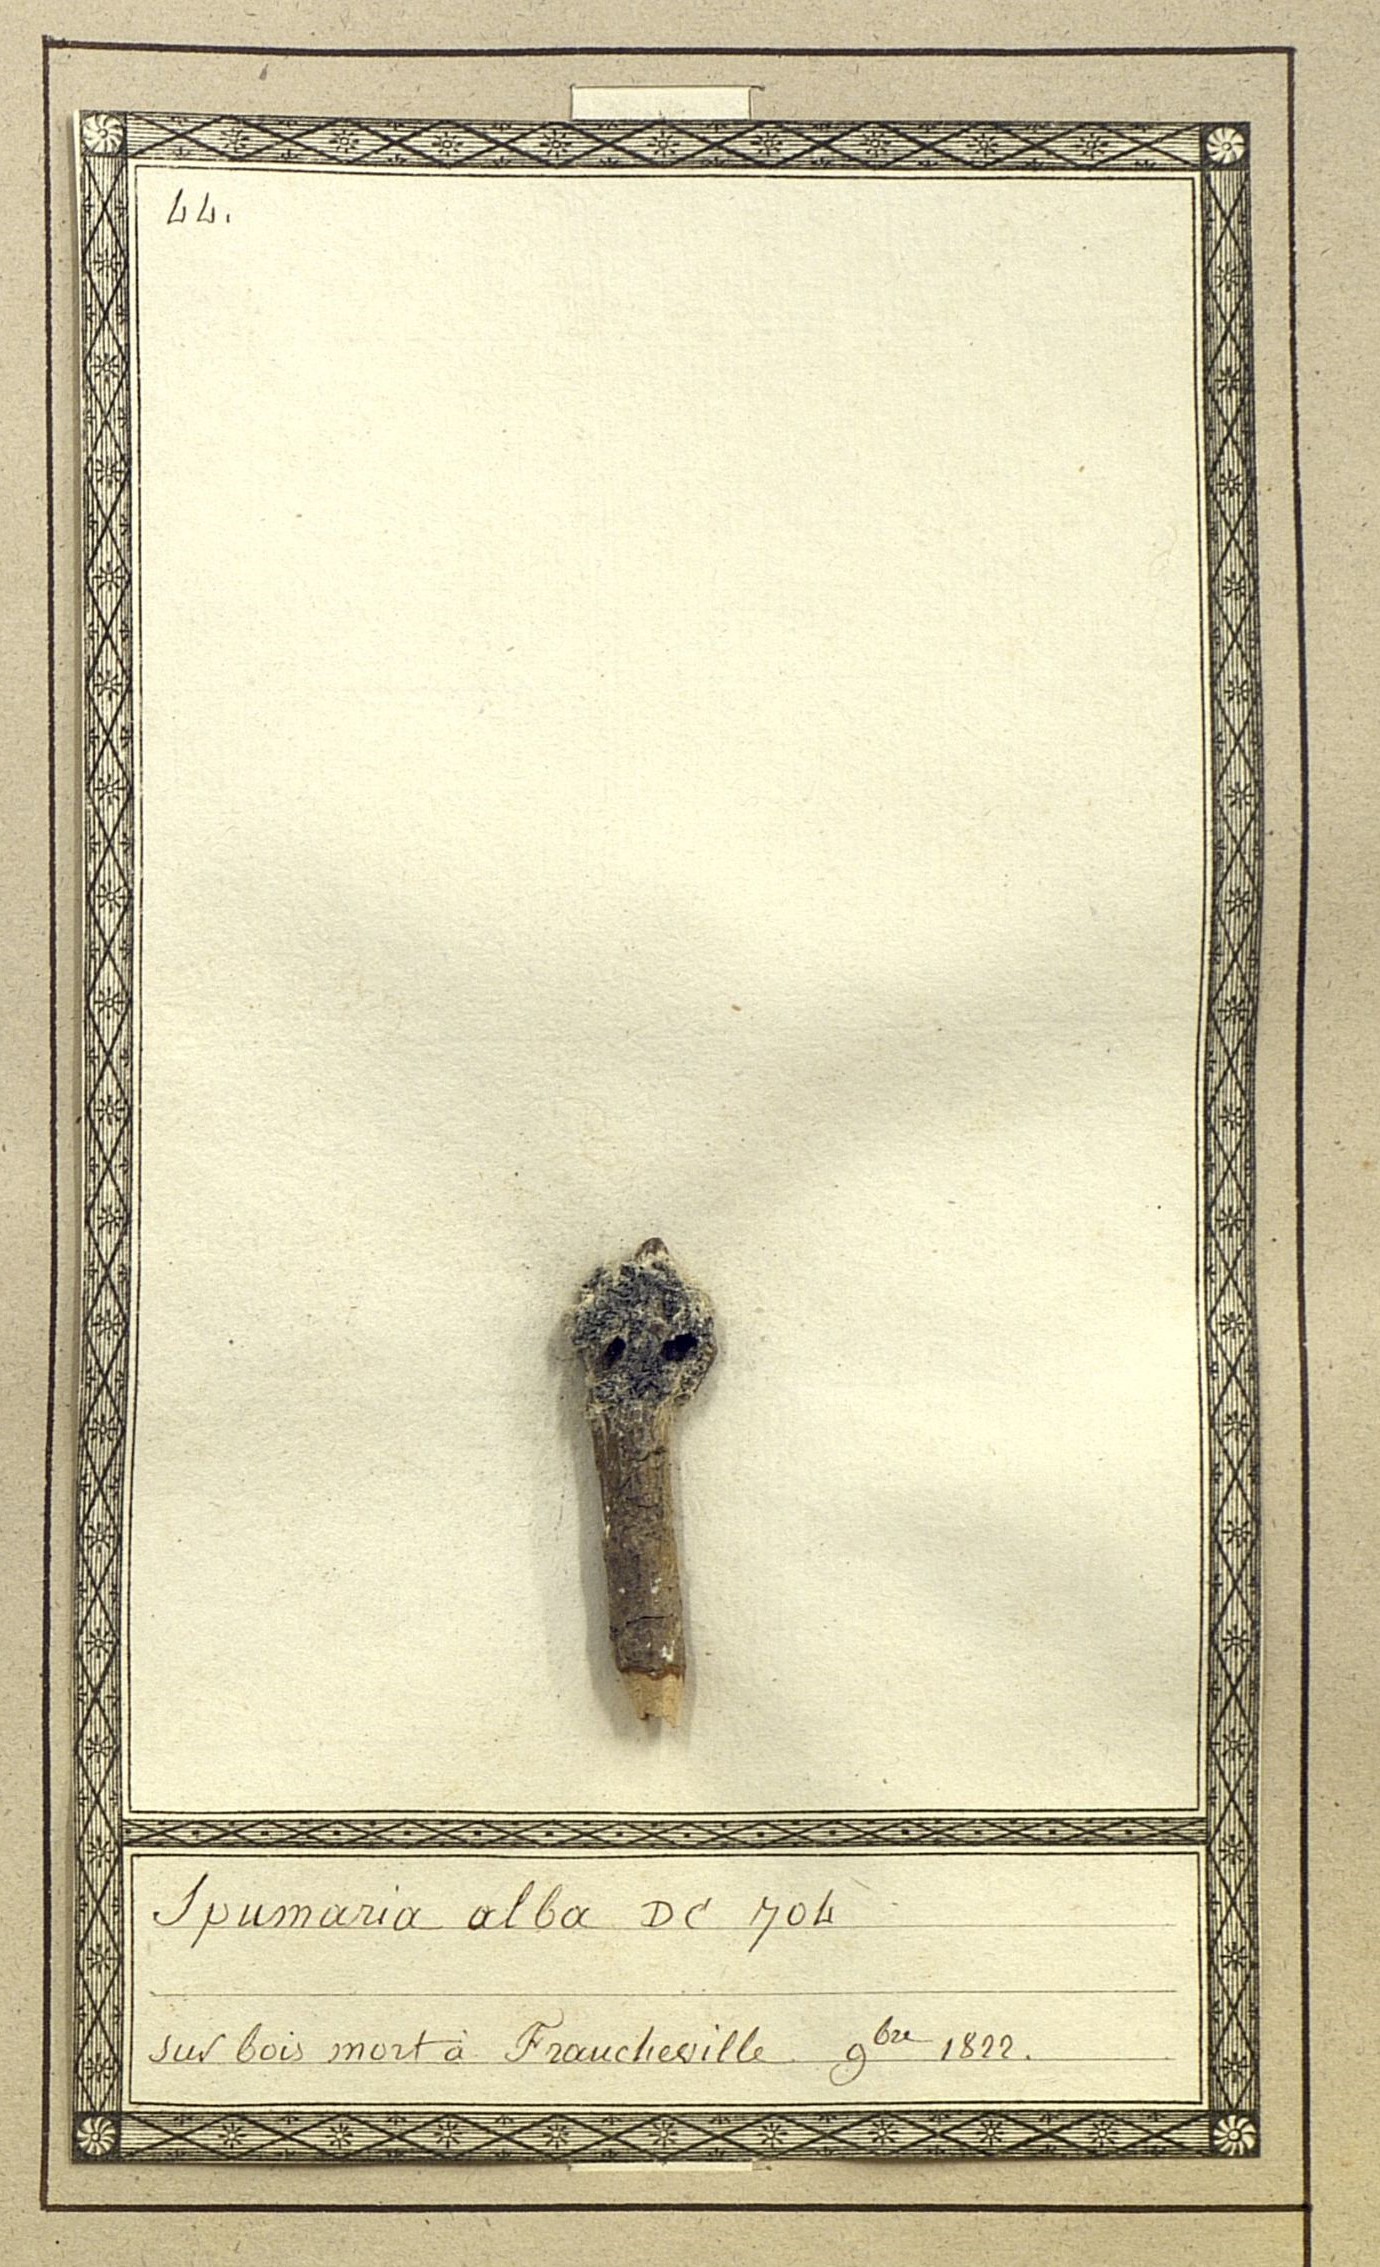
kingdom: Protozoa
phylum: Mycetozoa
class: Myxomycetes
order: Physarales
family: Didymiaceae
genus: Mucilago
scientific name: Mucilago crustacea
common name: Dog vomit slime mould
